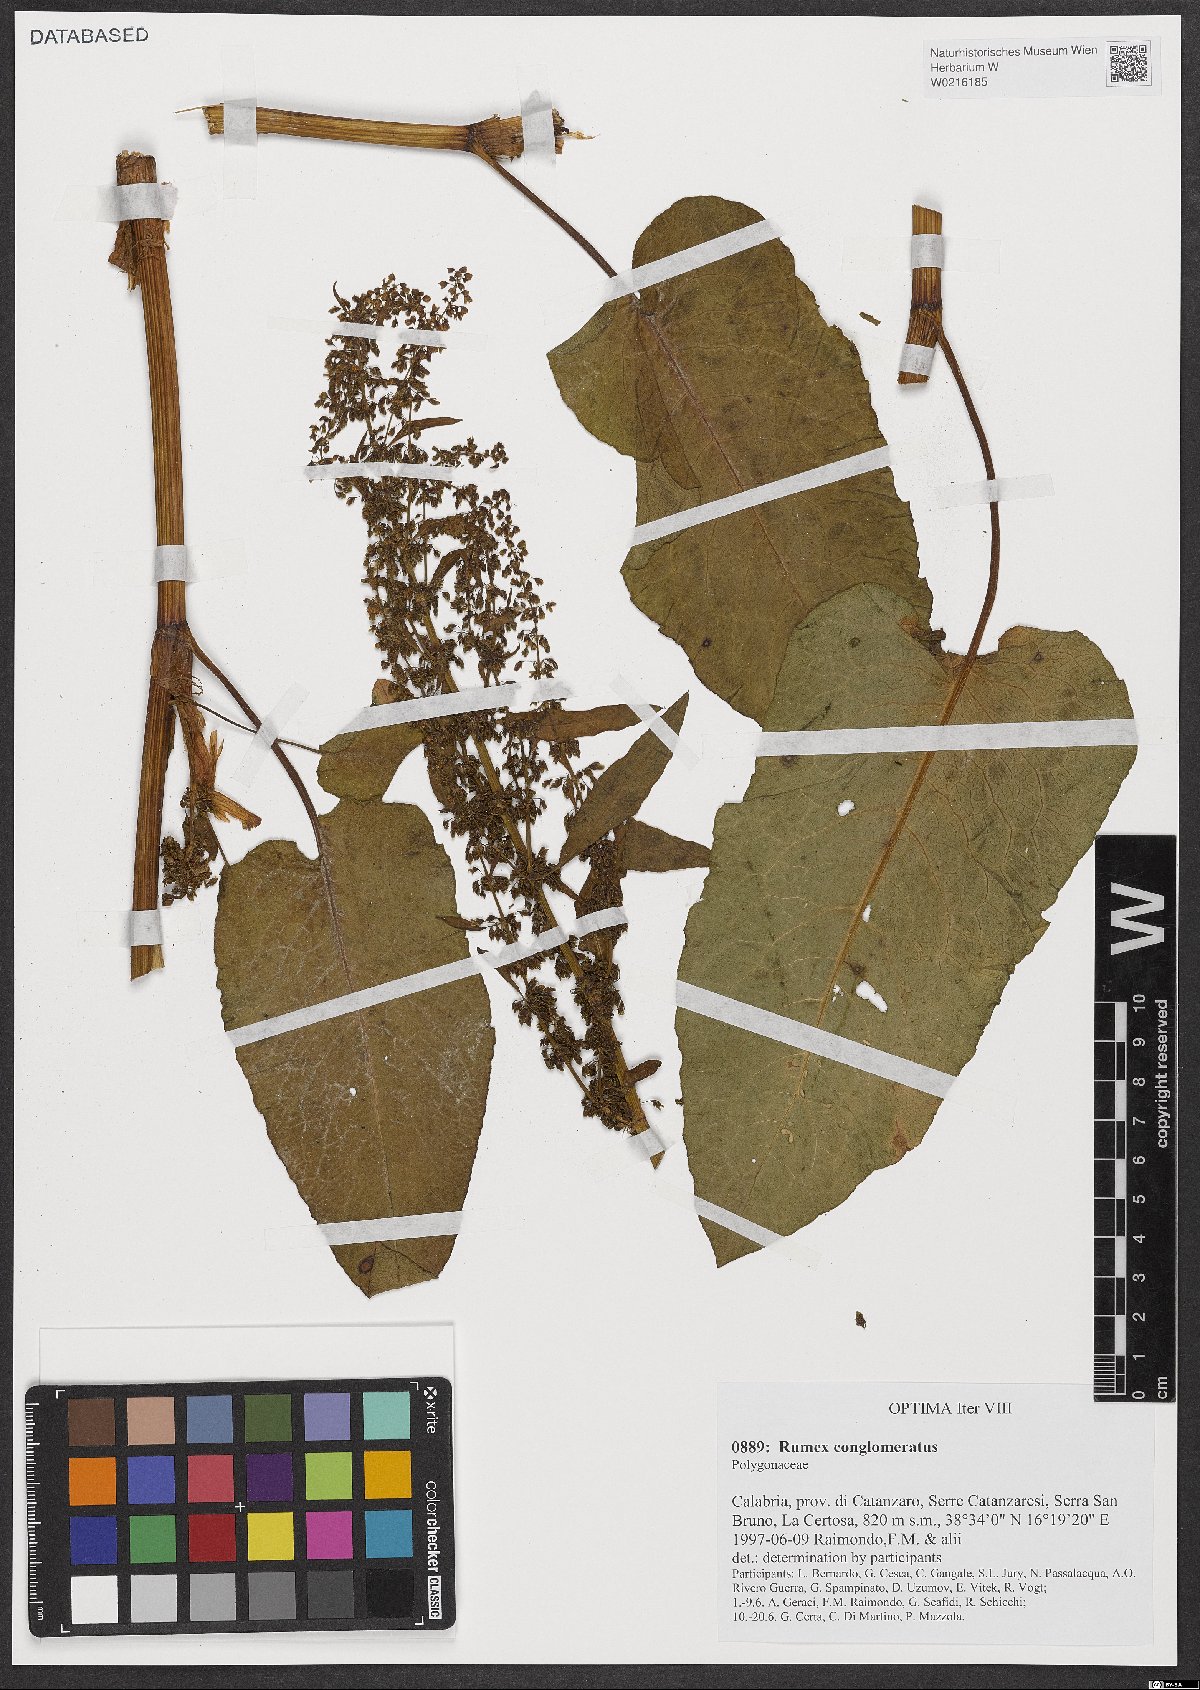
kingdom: Plantae
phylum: Tracheophyta
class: Magnoliopsida
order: Caryophyllales
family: Polygonaceae
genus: Rumex
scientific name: Rumex conglomeratus
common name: Clustered dock
